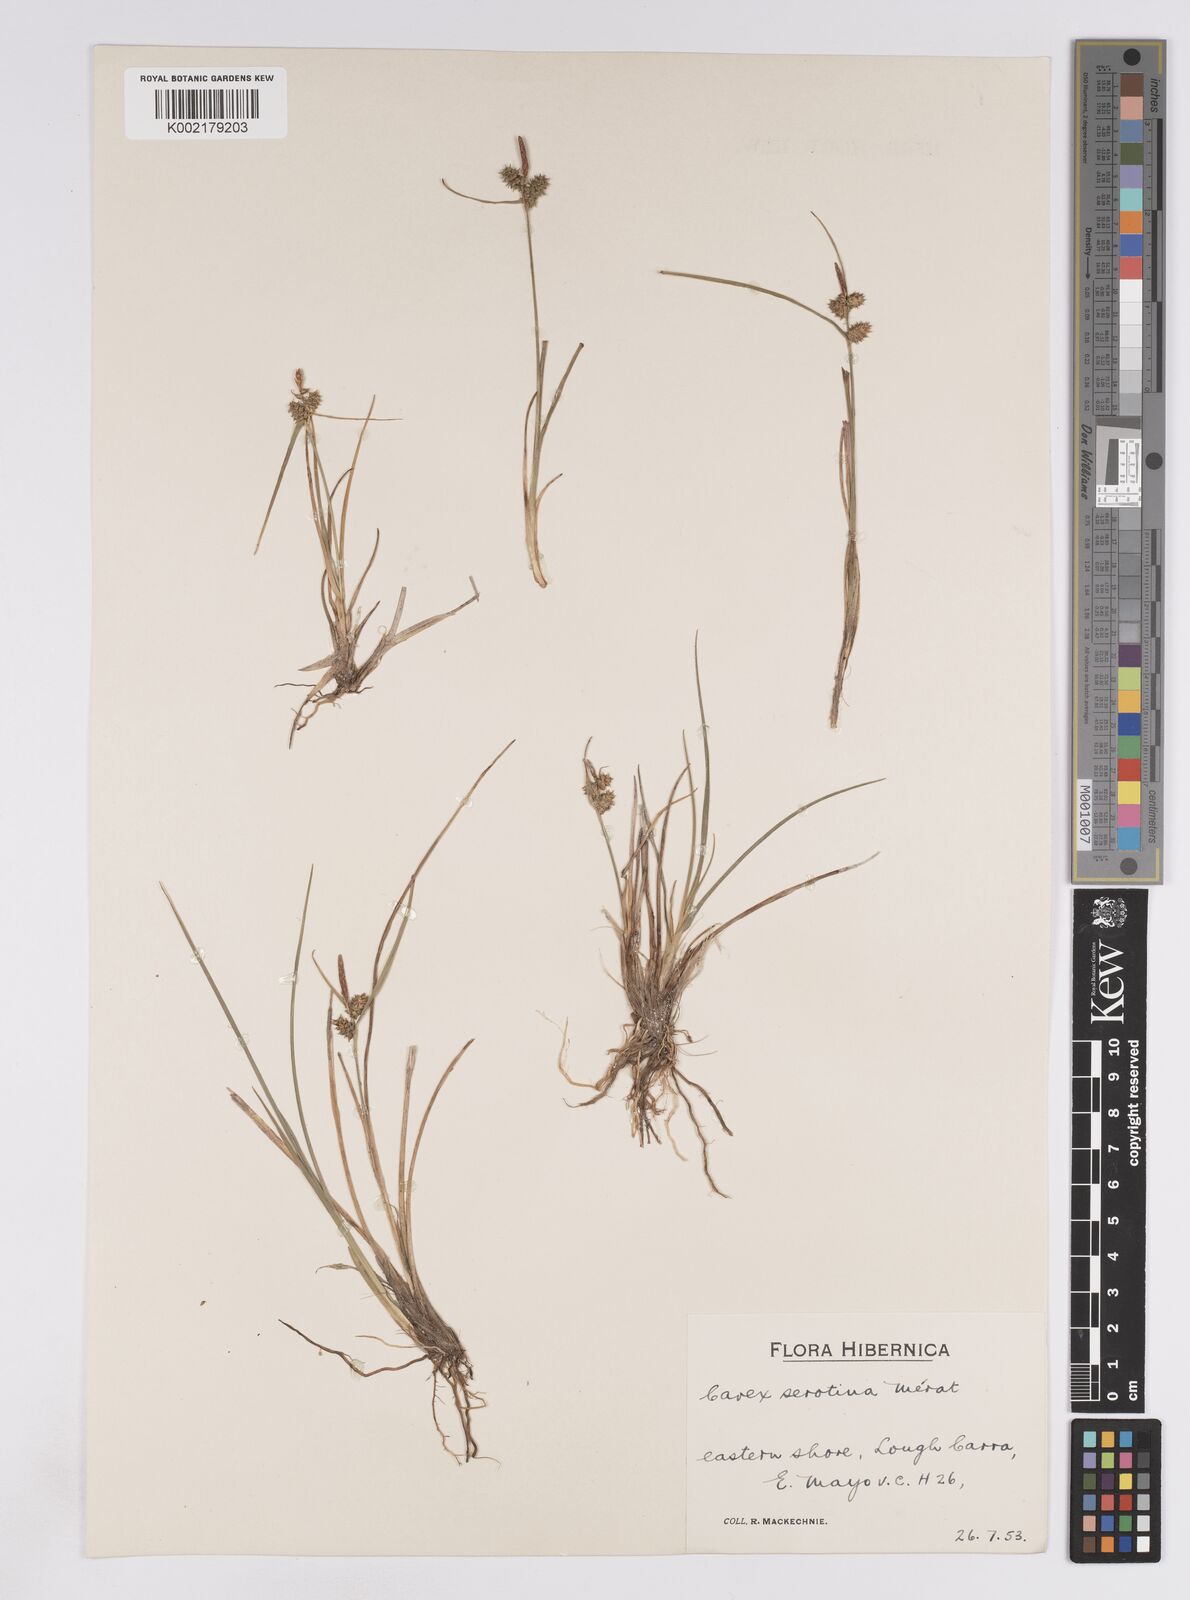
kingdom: Plantae
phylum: Tracheophyta
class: Liliopsida
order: Poales
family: Cyperaceae
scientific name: Cyperaceae
